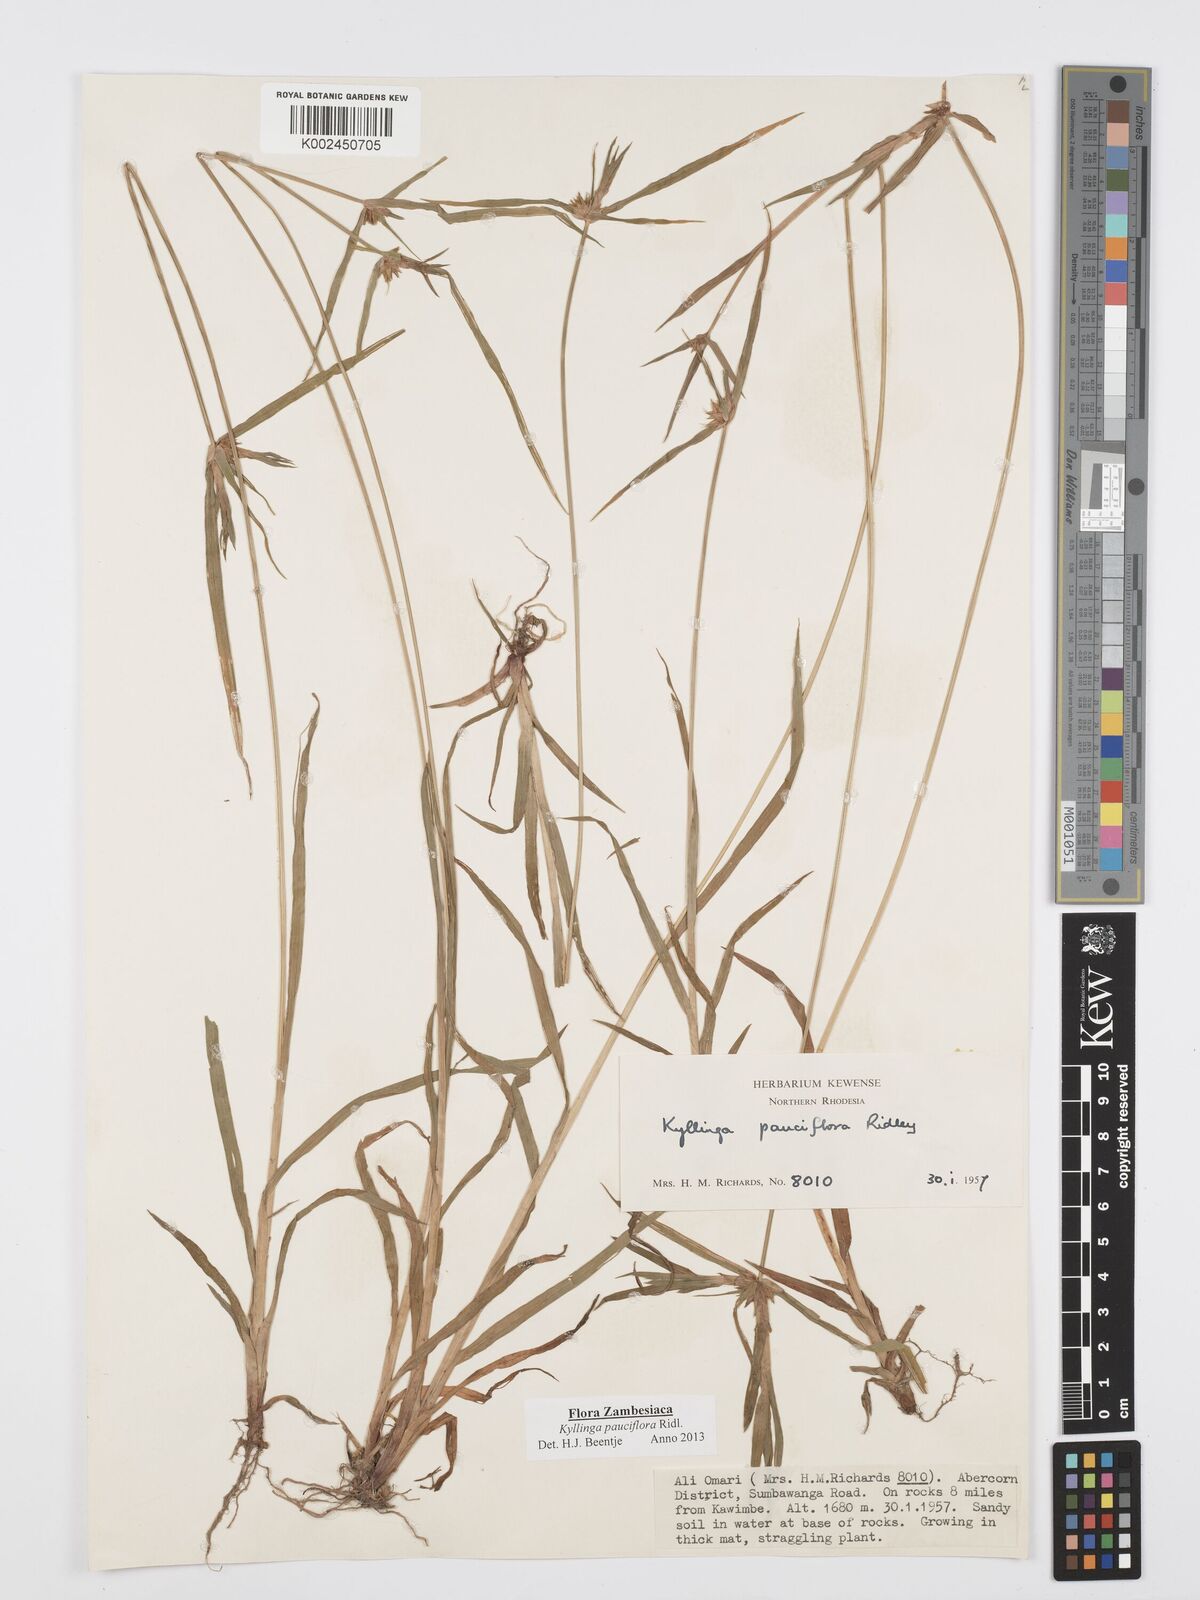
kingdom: Plantae
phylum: Tracheophyta
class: Liliopsida
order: Poales
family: Cyperaceae
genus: Cyperus
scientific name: Cyperus
